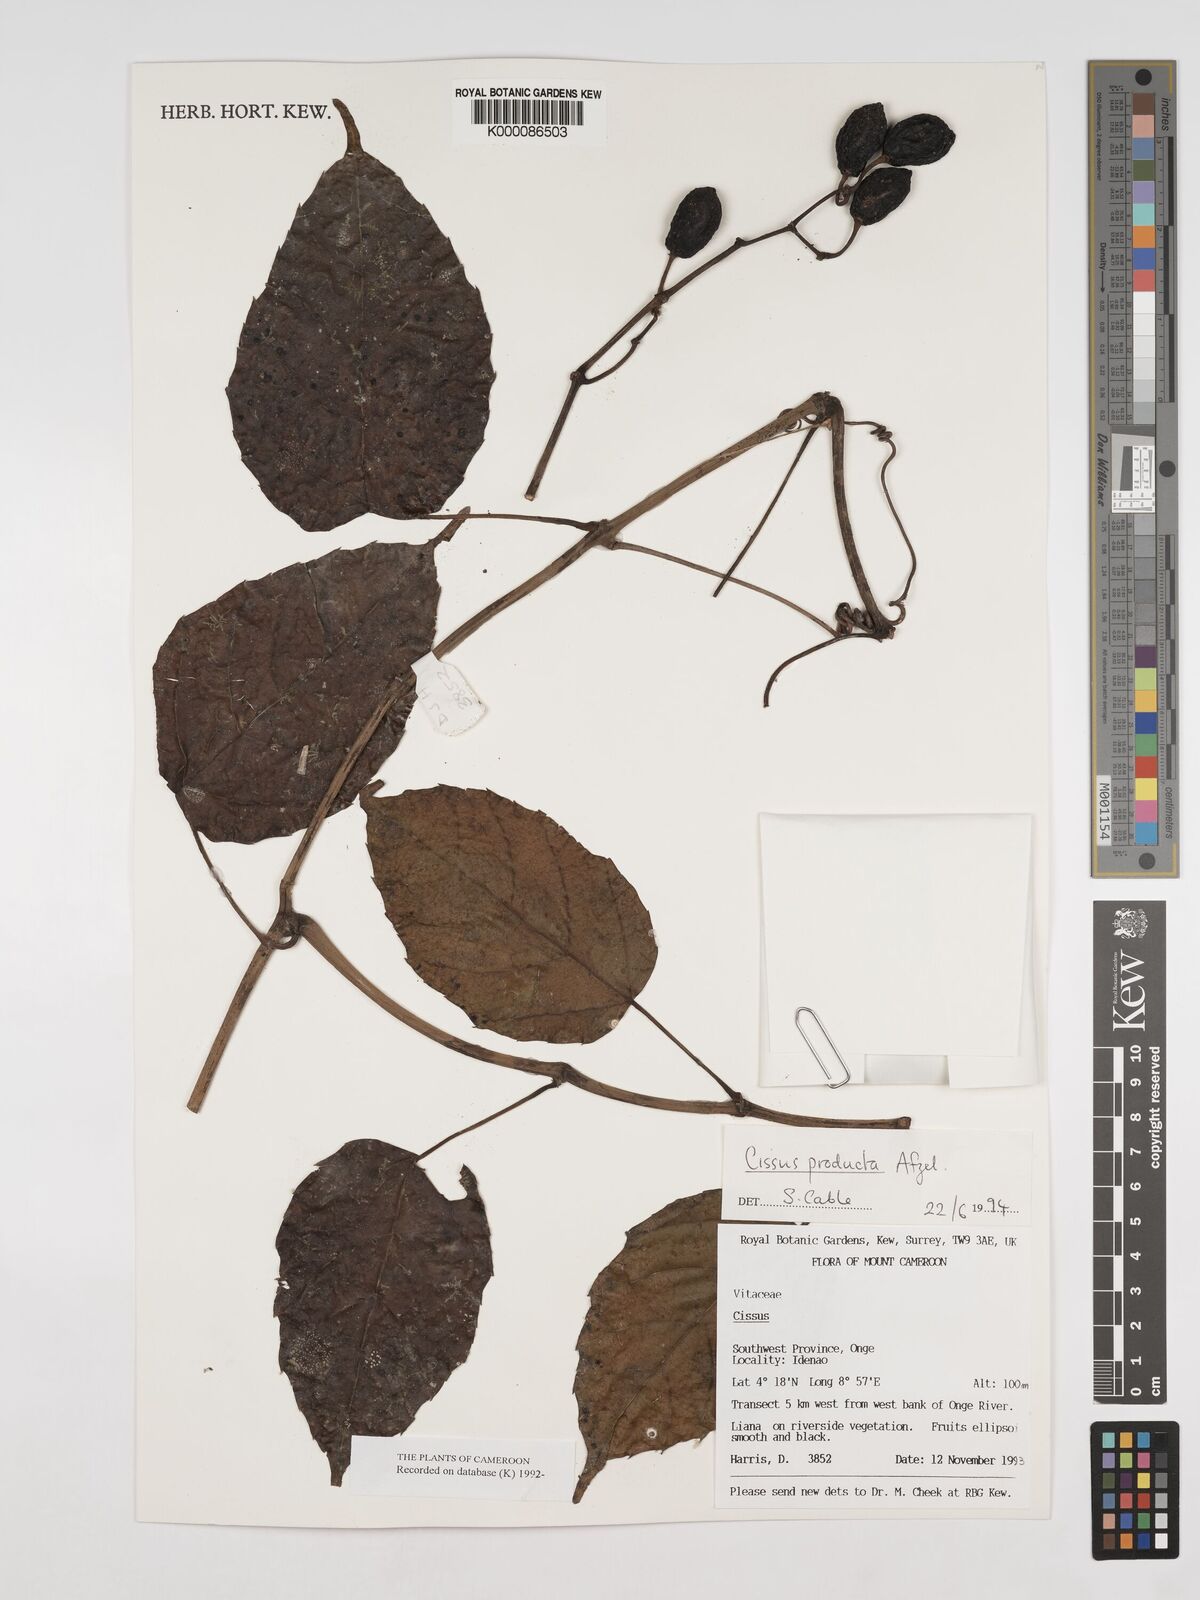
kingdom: Plantae
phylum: Tracheophyta
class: Magnoliopsida
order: Vitales
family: Vitaceae
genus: Cissus
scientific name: Cissus producta
